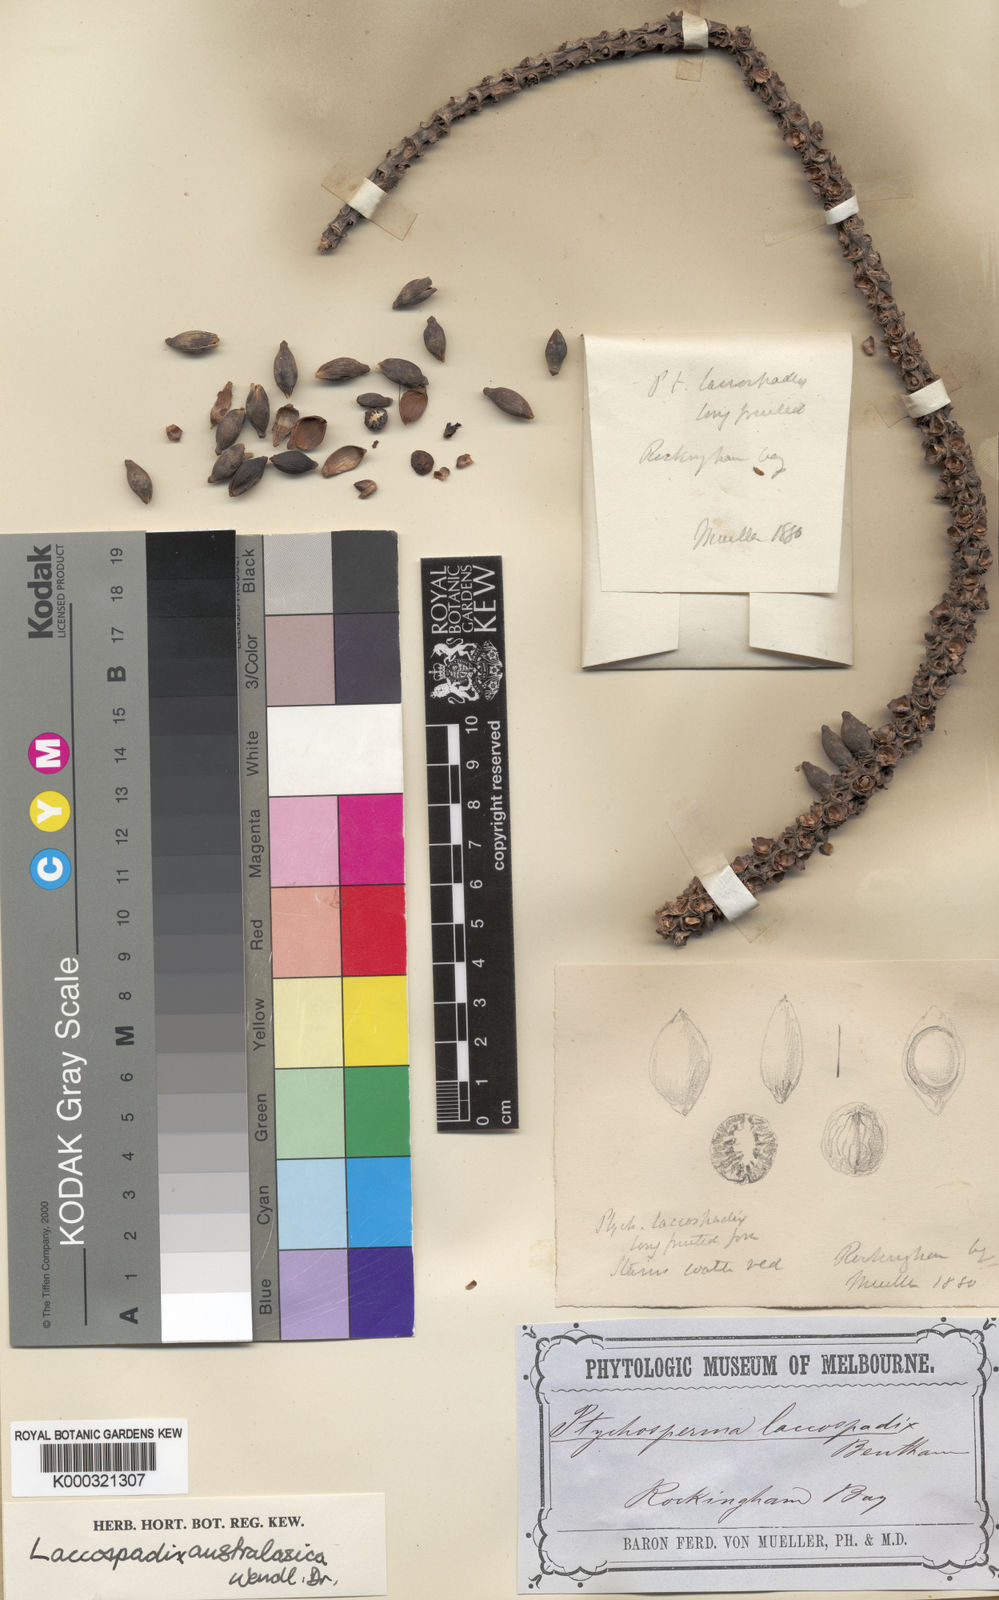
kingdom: Plantae
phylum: Tracheophyta
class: Liliopsida
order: Arecales
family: Arecaceae
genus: Laccospadix
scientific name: Laccospadix australasicus
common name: Mountain mist palm
